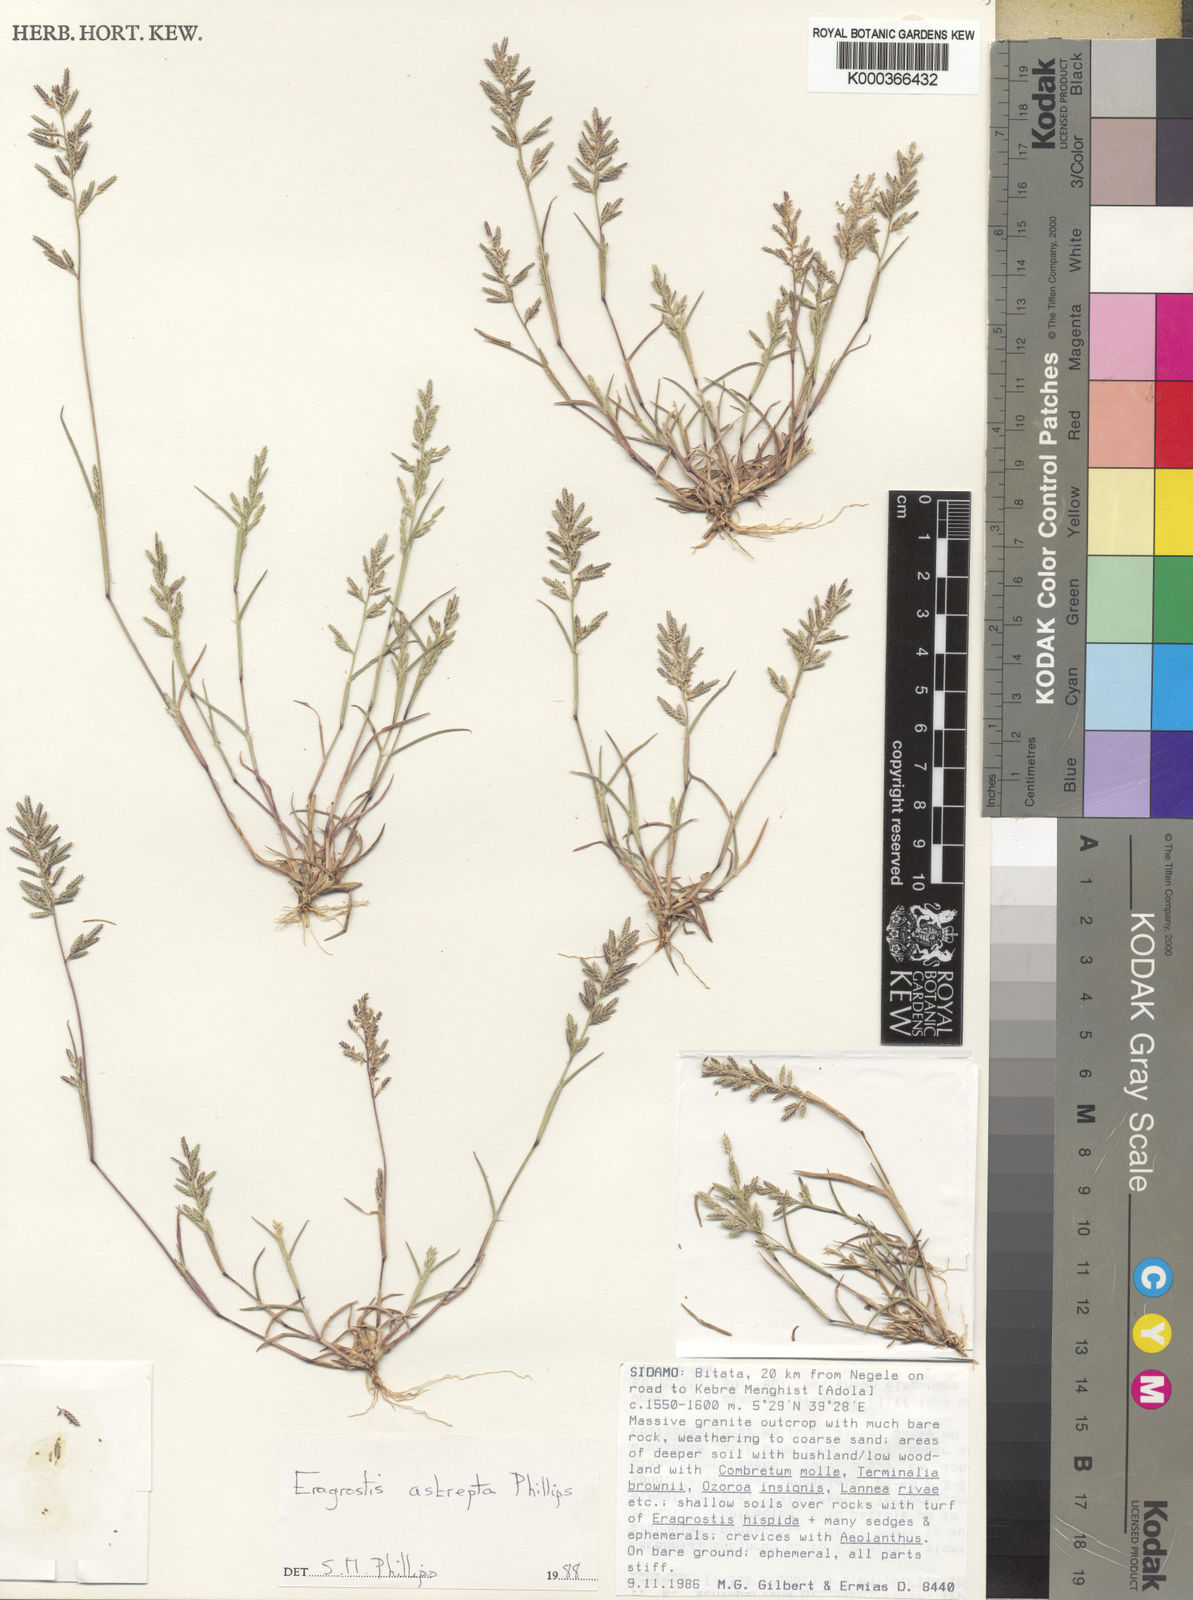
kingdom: Plantae
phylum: Tracheophyta
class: Liliopsida
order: Poales
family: Poaceae
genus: Eragrostis
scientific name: Eragrostis astrepta
